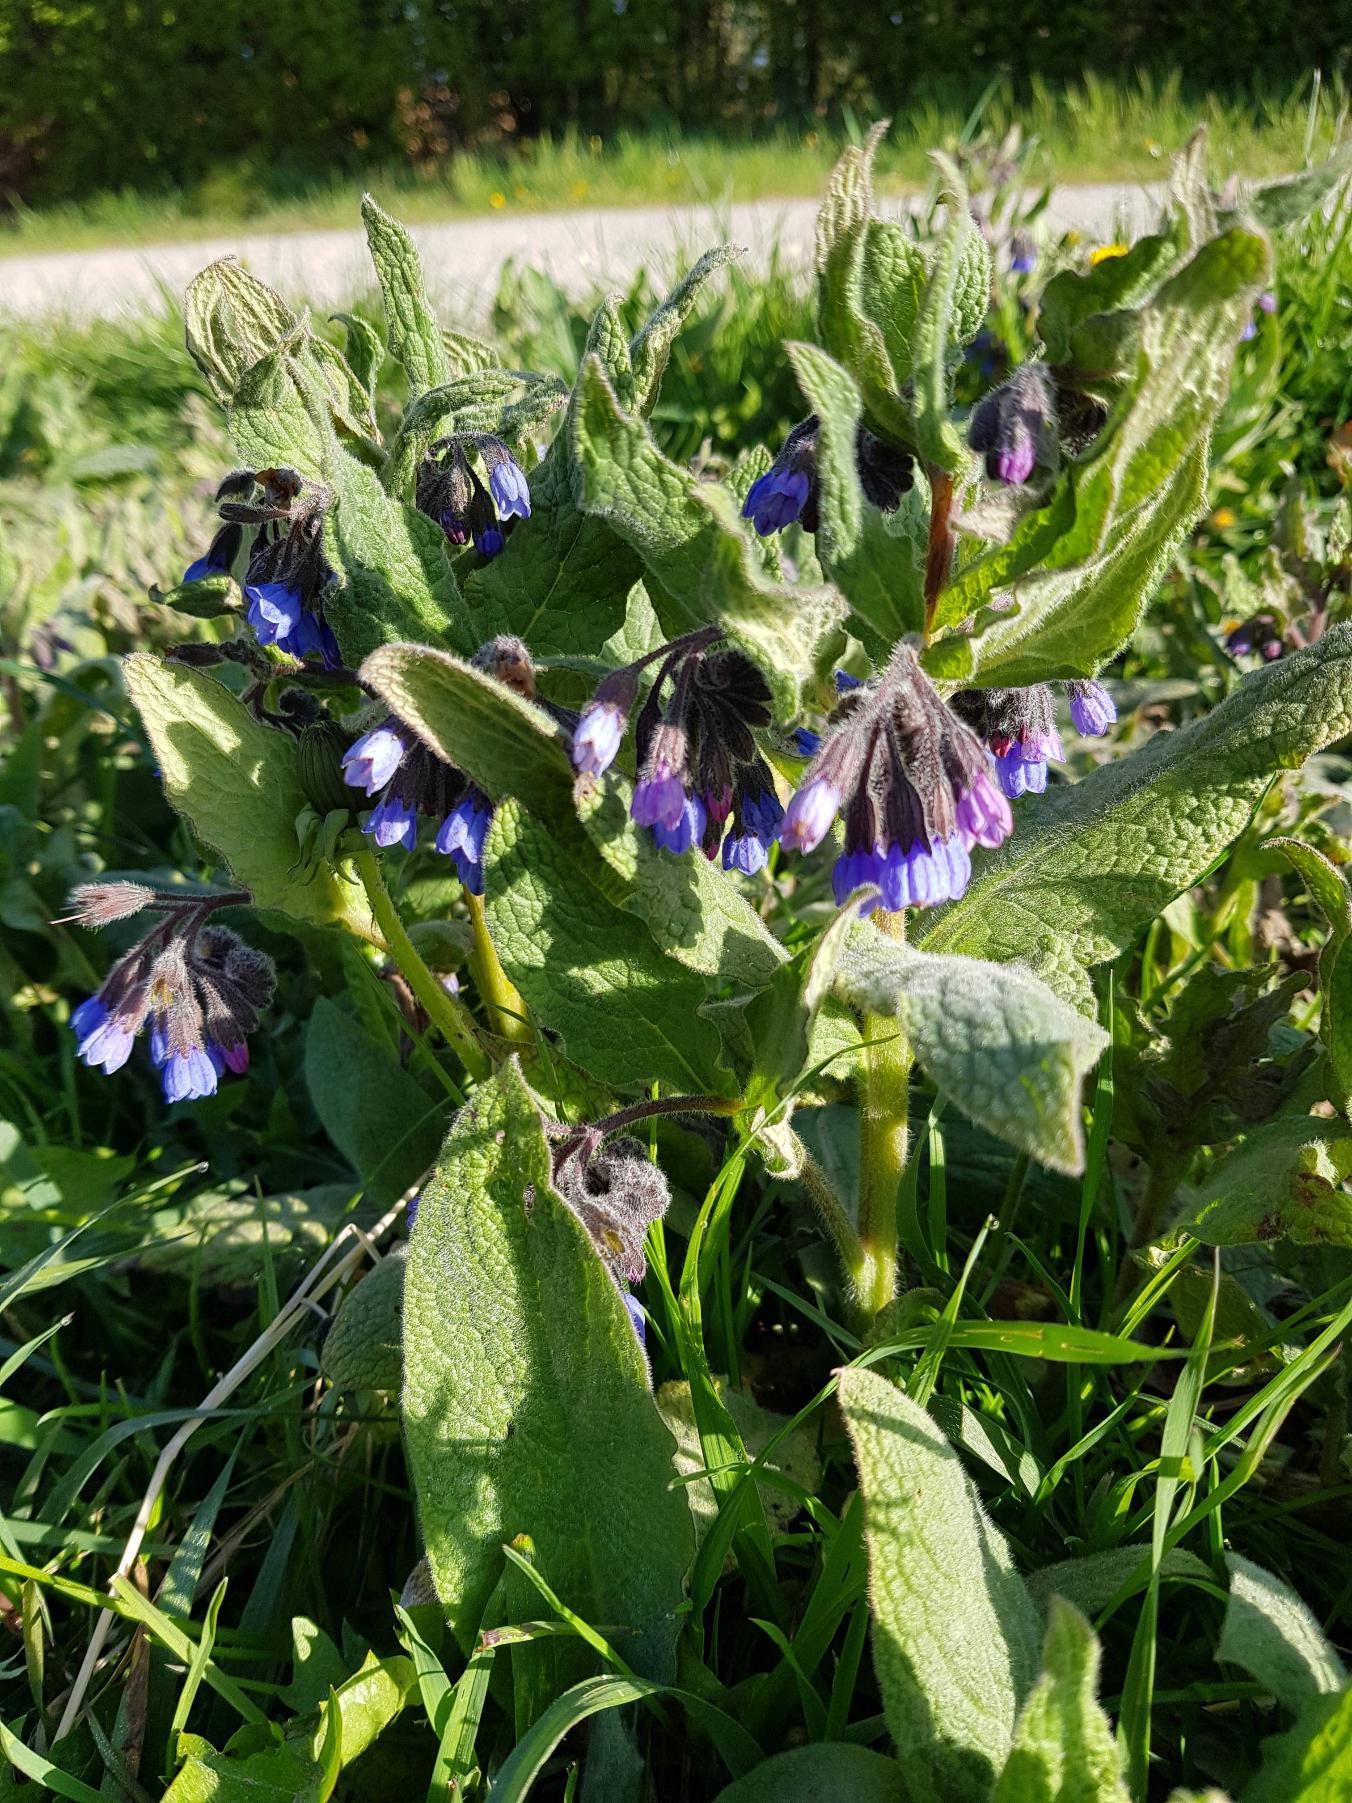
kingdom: Plantae
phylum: Tracheophyta
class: Magnoliopsida
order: Boraginales
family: Boraginaceae
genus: Symphytum
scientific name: Symphytum caucasicum
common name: Kaukasisk kulsukker
